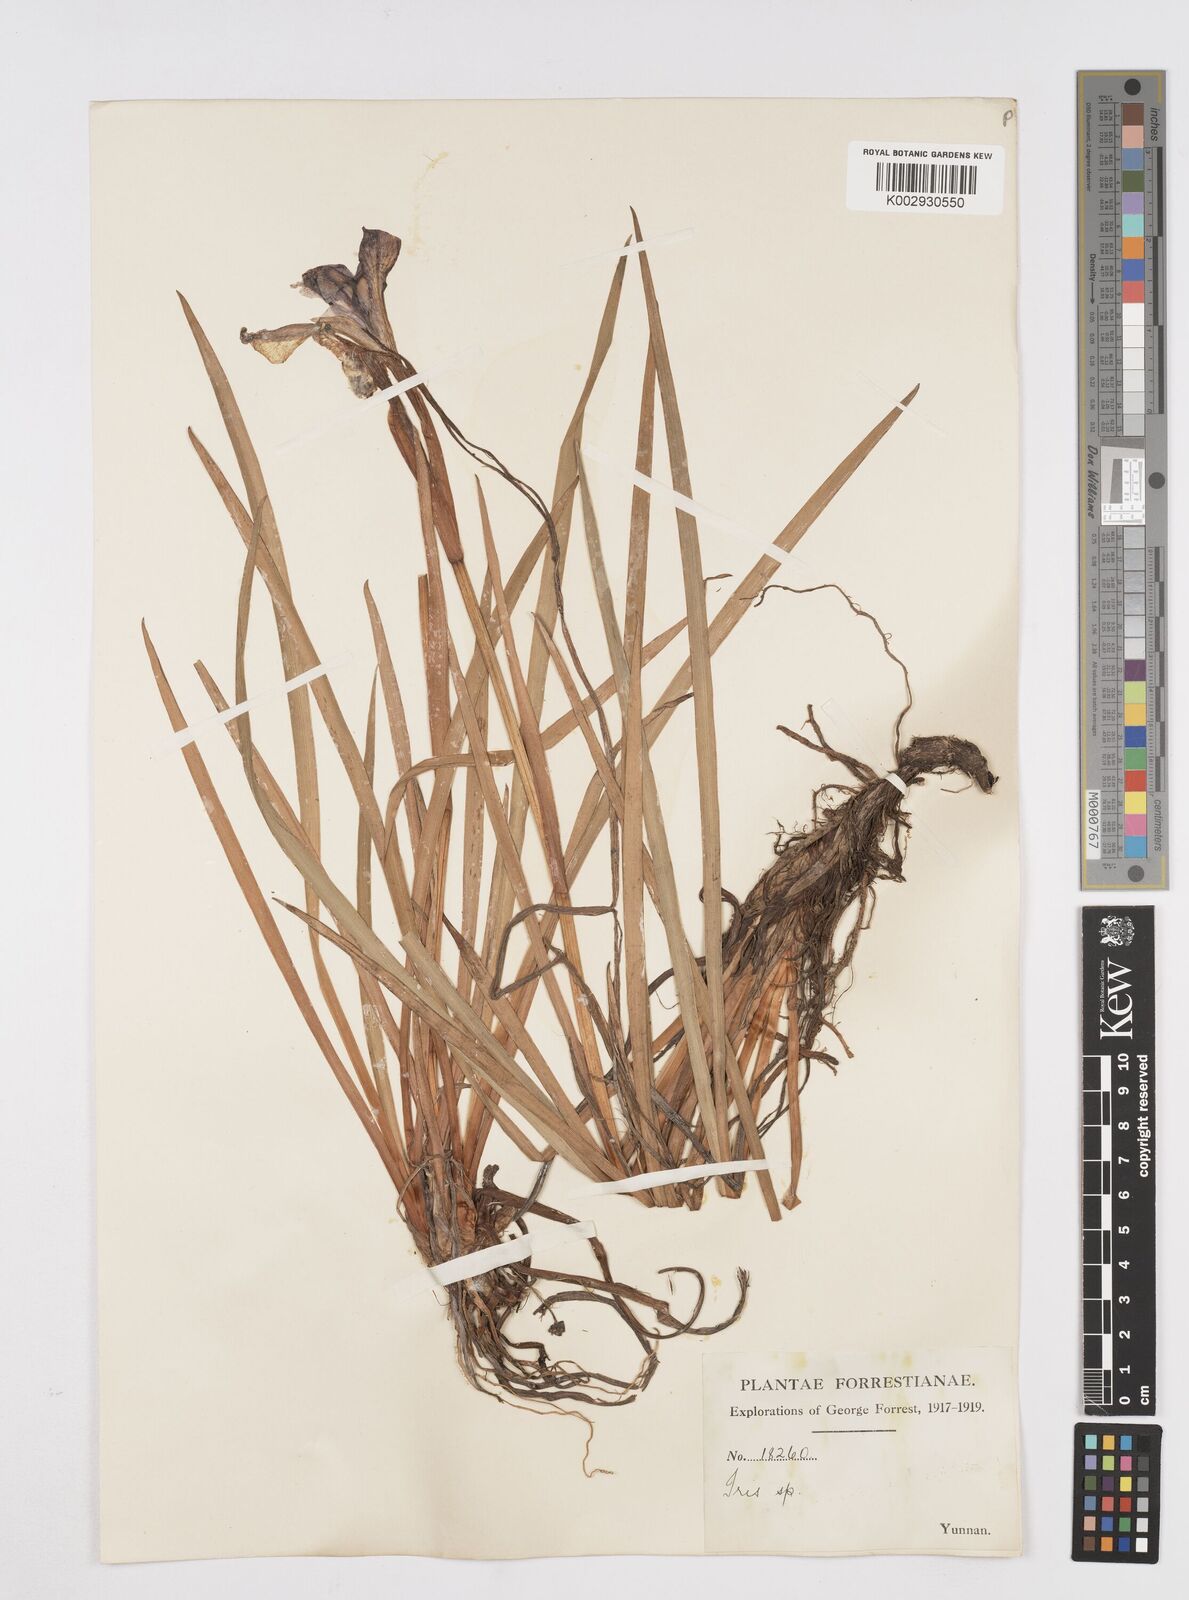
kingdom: Plantae
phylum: Tracheophyta
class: Liliopsida
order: Asparagales
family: Iridaceae
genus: Iris
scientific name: Iris bulleyana
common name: Southwest iris
